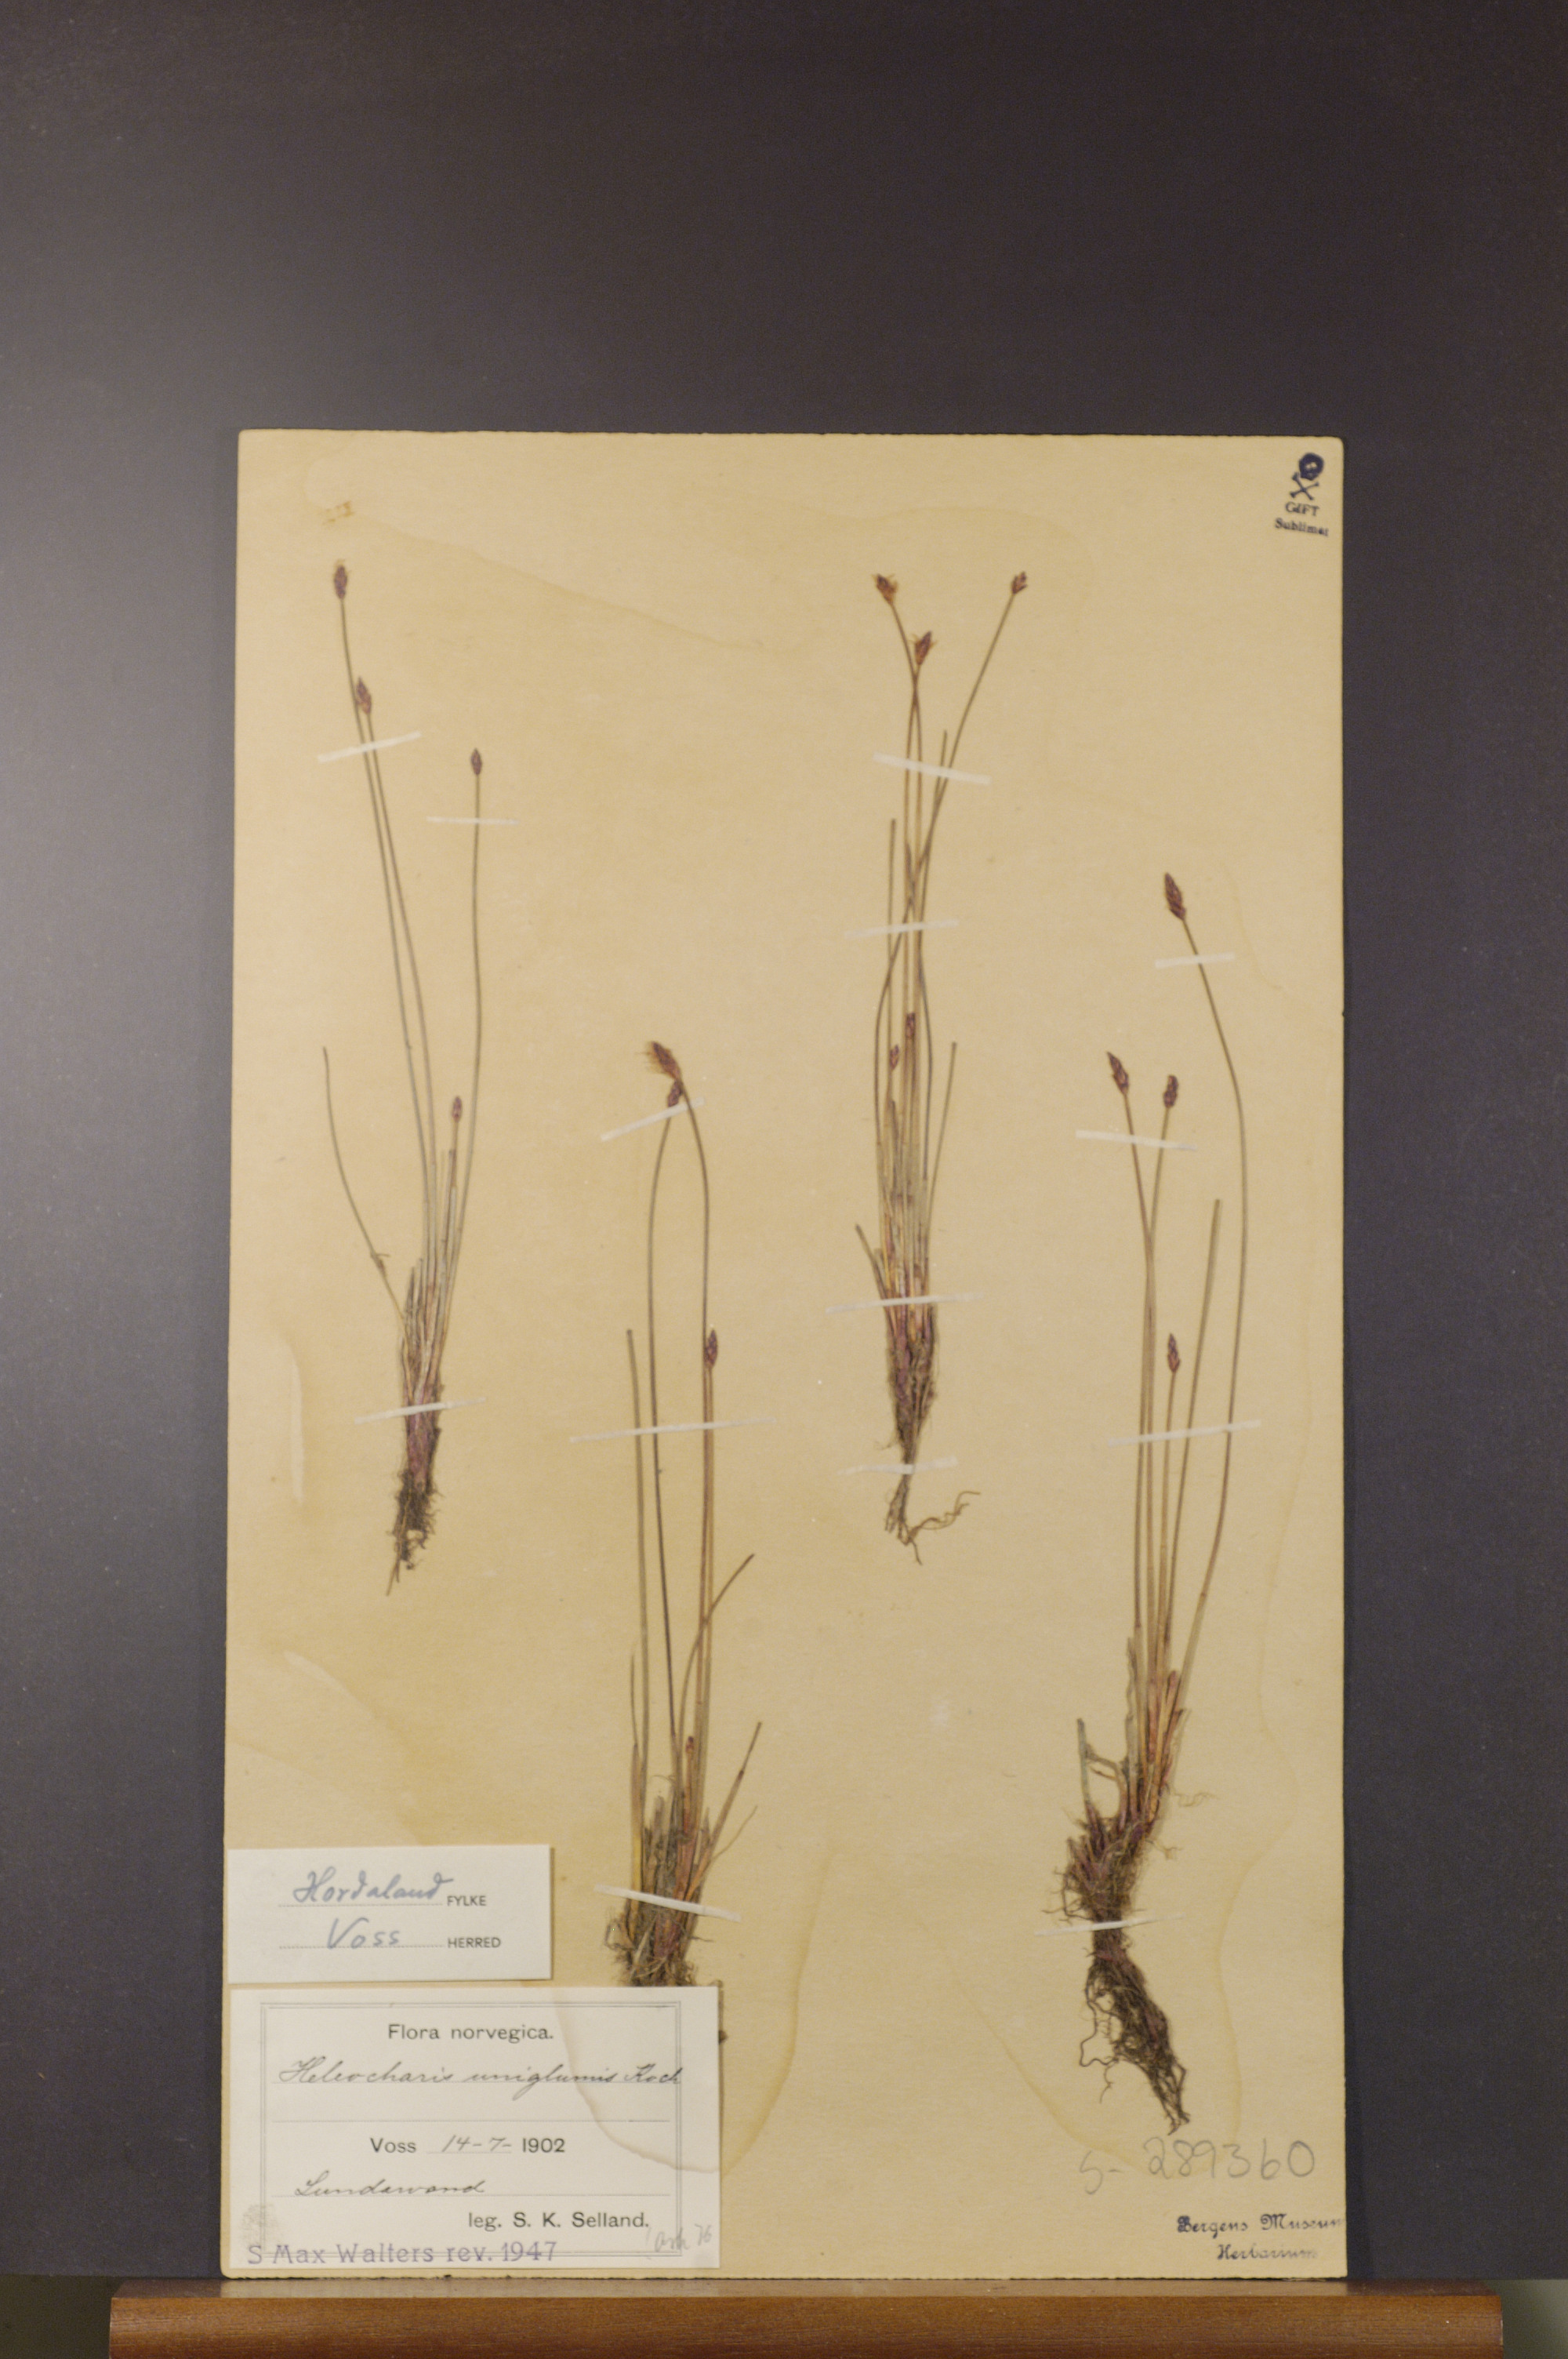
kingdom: Plantae
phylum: Tracheophyta
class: Liliopsida
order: Poales
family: Cyperaceae
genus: Eleocharis
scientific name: Eleocharis uniglumis
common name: Slender spike-rush
